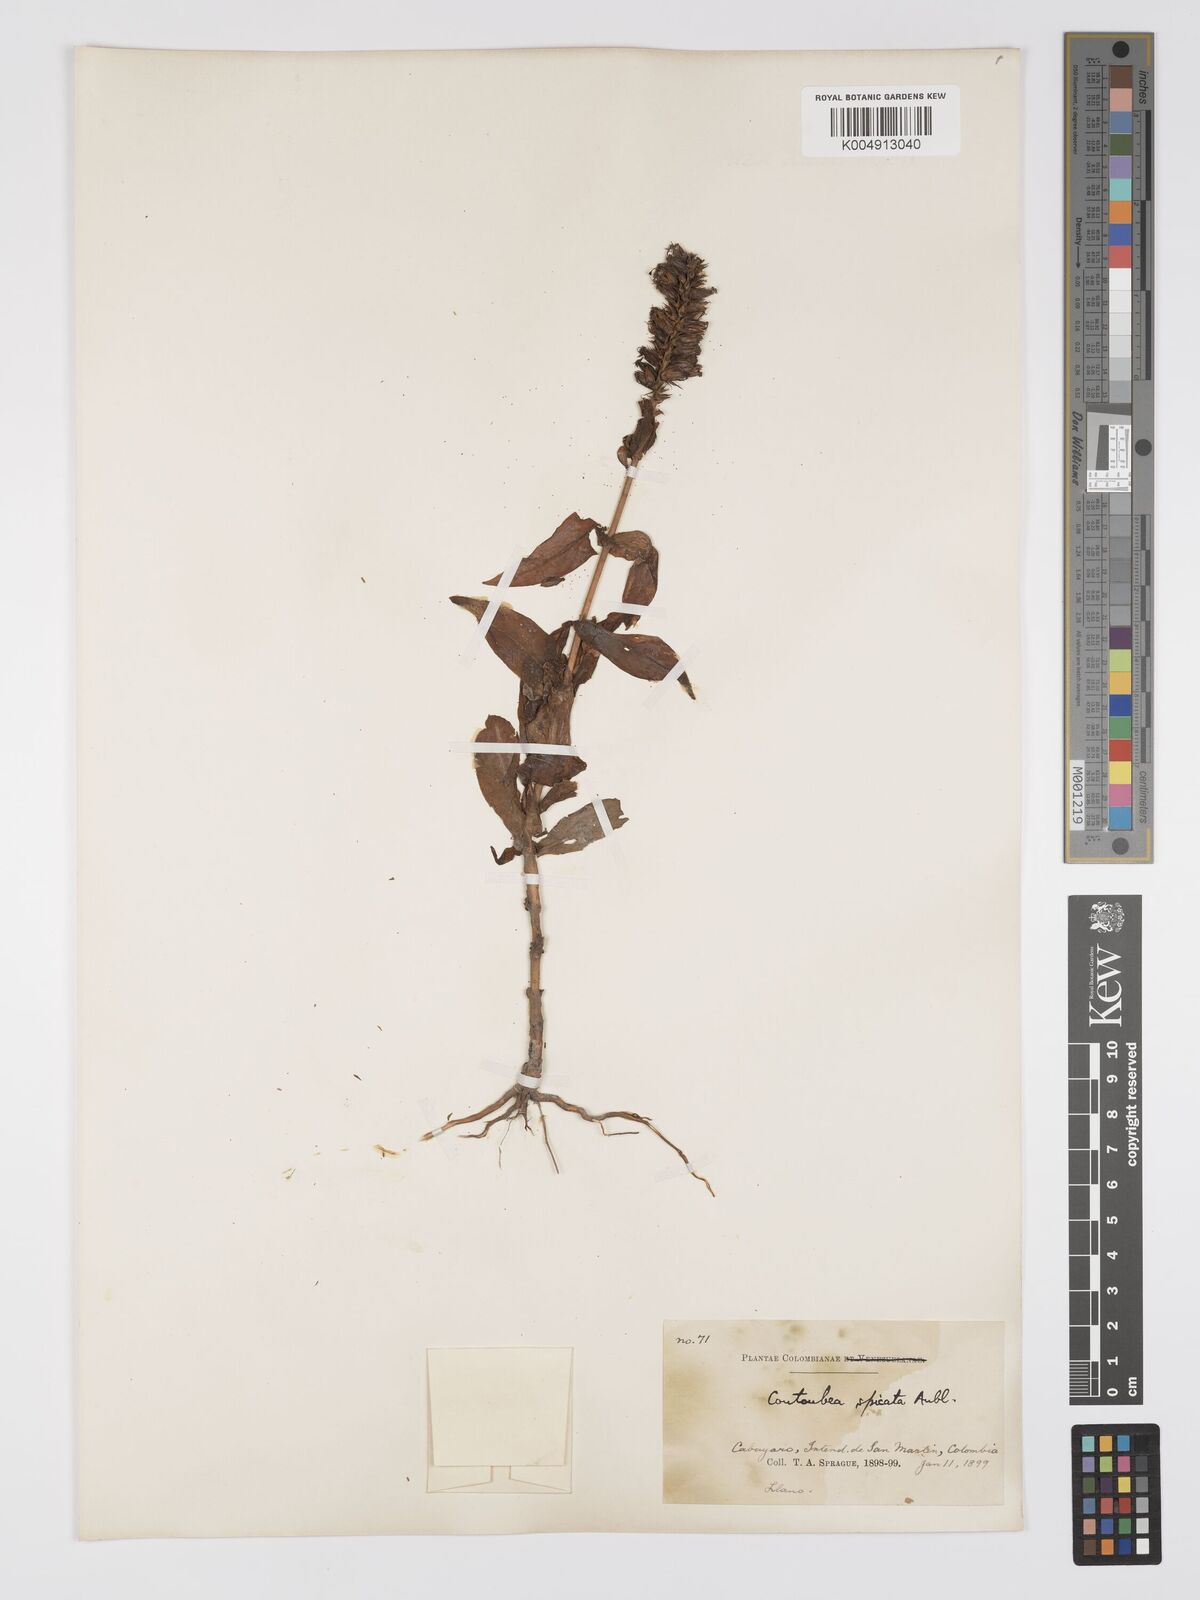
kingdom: Plantae
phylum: Tracheophyta
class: Magnoliopsida
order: Gentianales
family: Gentianaceae
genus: Coutoubea
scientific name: Coutoubea spicata
